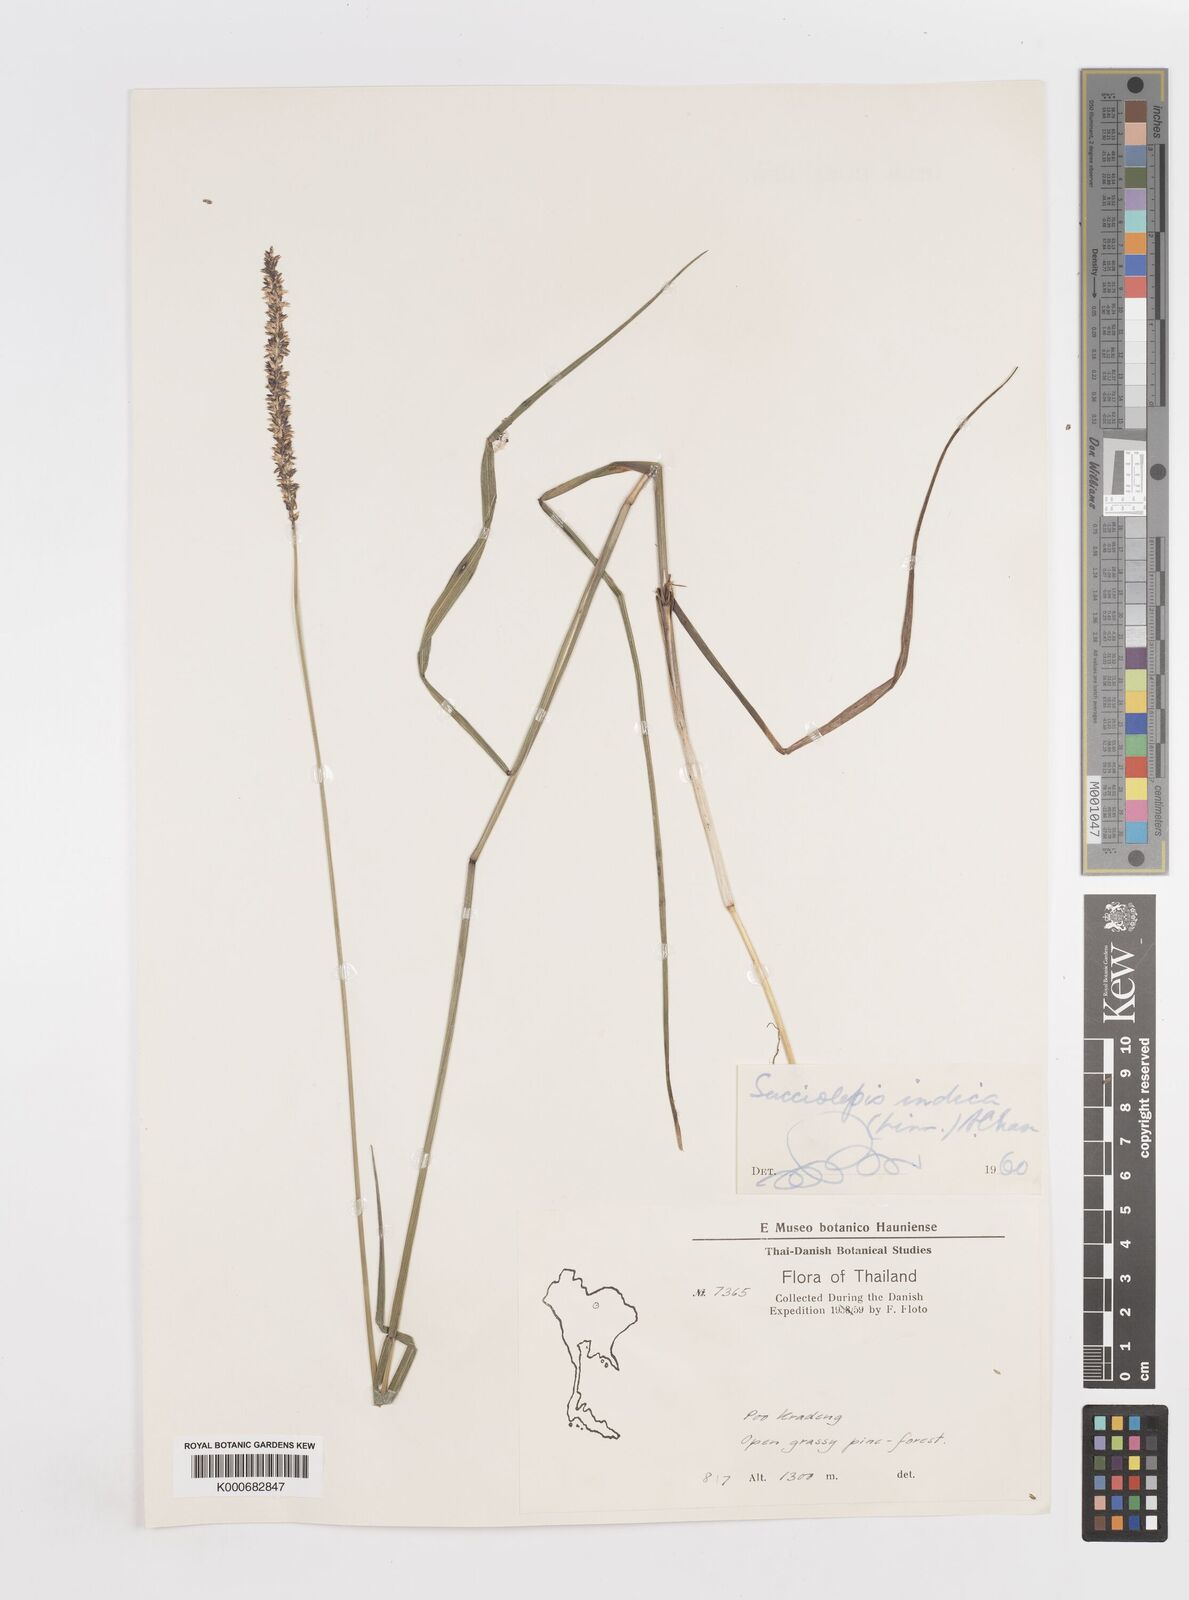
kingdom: Plantae
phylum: Tracheophyta
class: Liliopsida
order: Poales
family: Poaceae
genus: Sacciolepis
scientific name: Sacciolepis indica
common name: Glenwoodgrass
